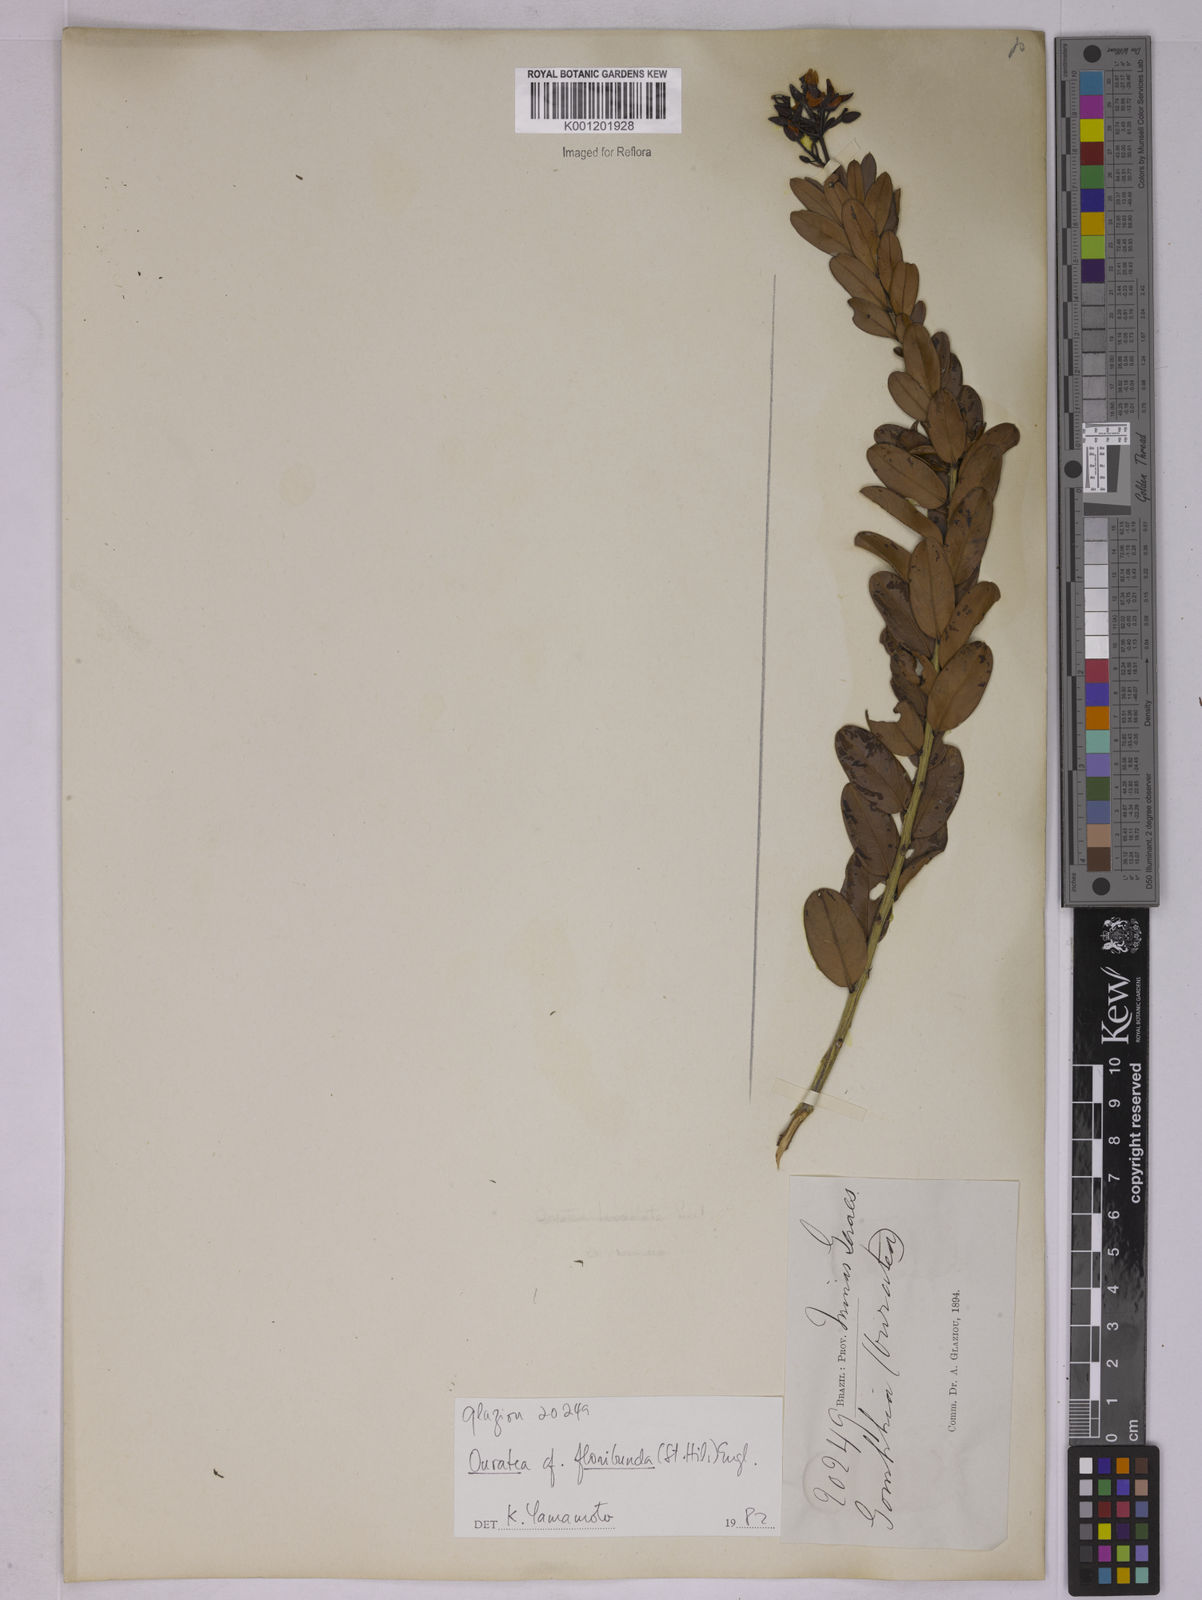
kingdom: Plantae
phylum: Tracheophyta
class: Magnoliopsida
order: Malpighiales
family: Ochnaceae
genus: Ouratea
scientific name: Ouratea floribunda
